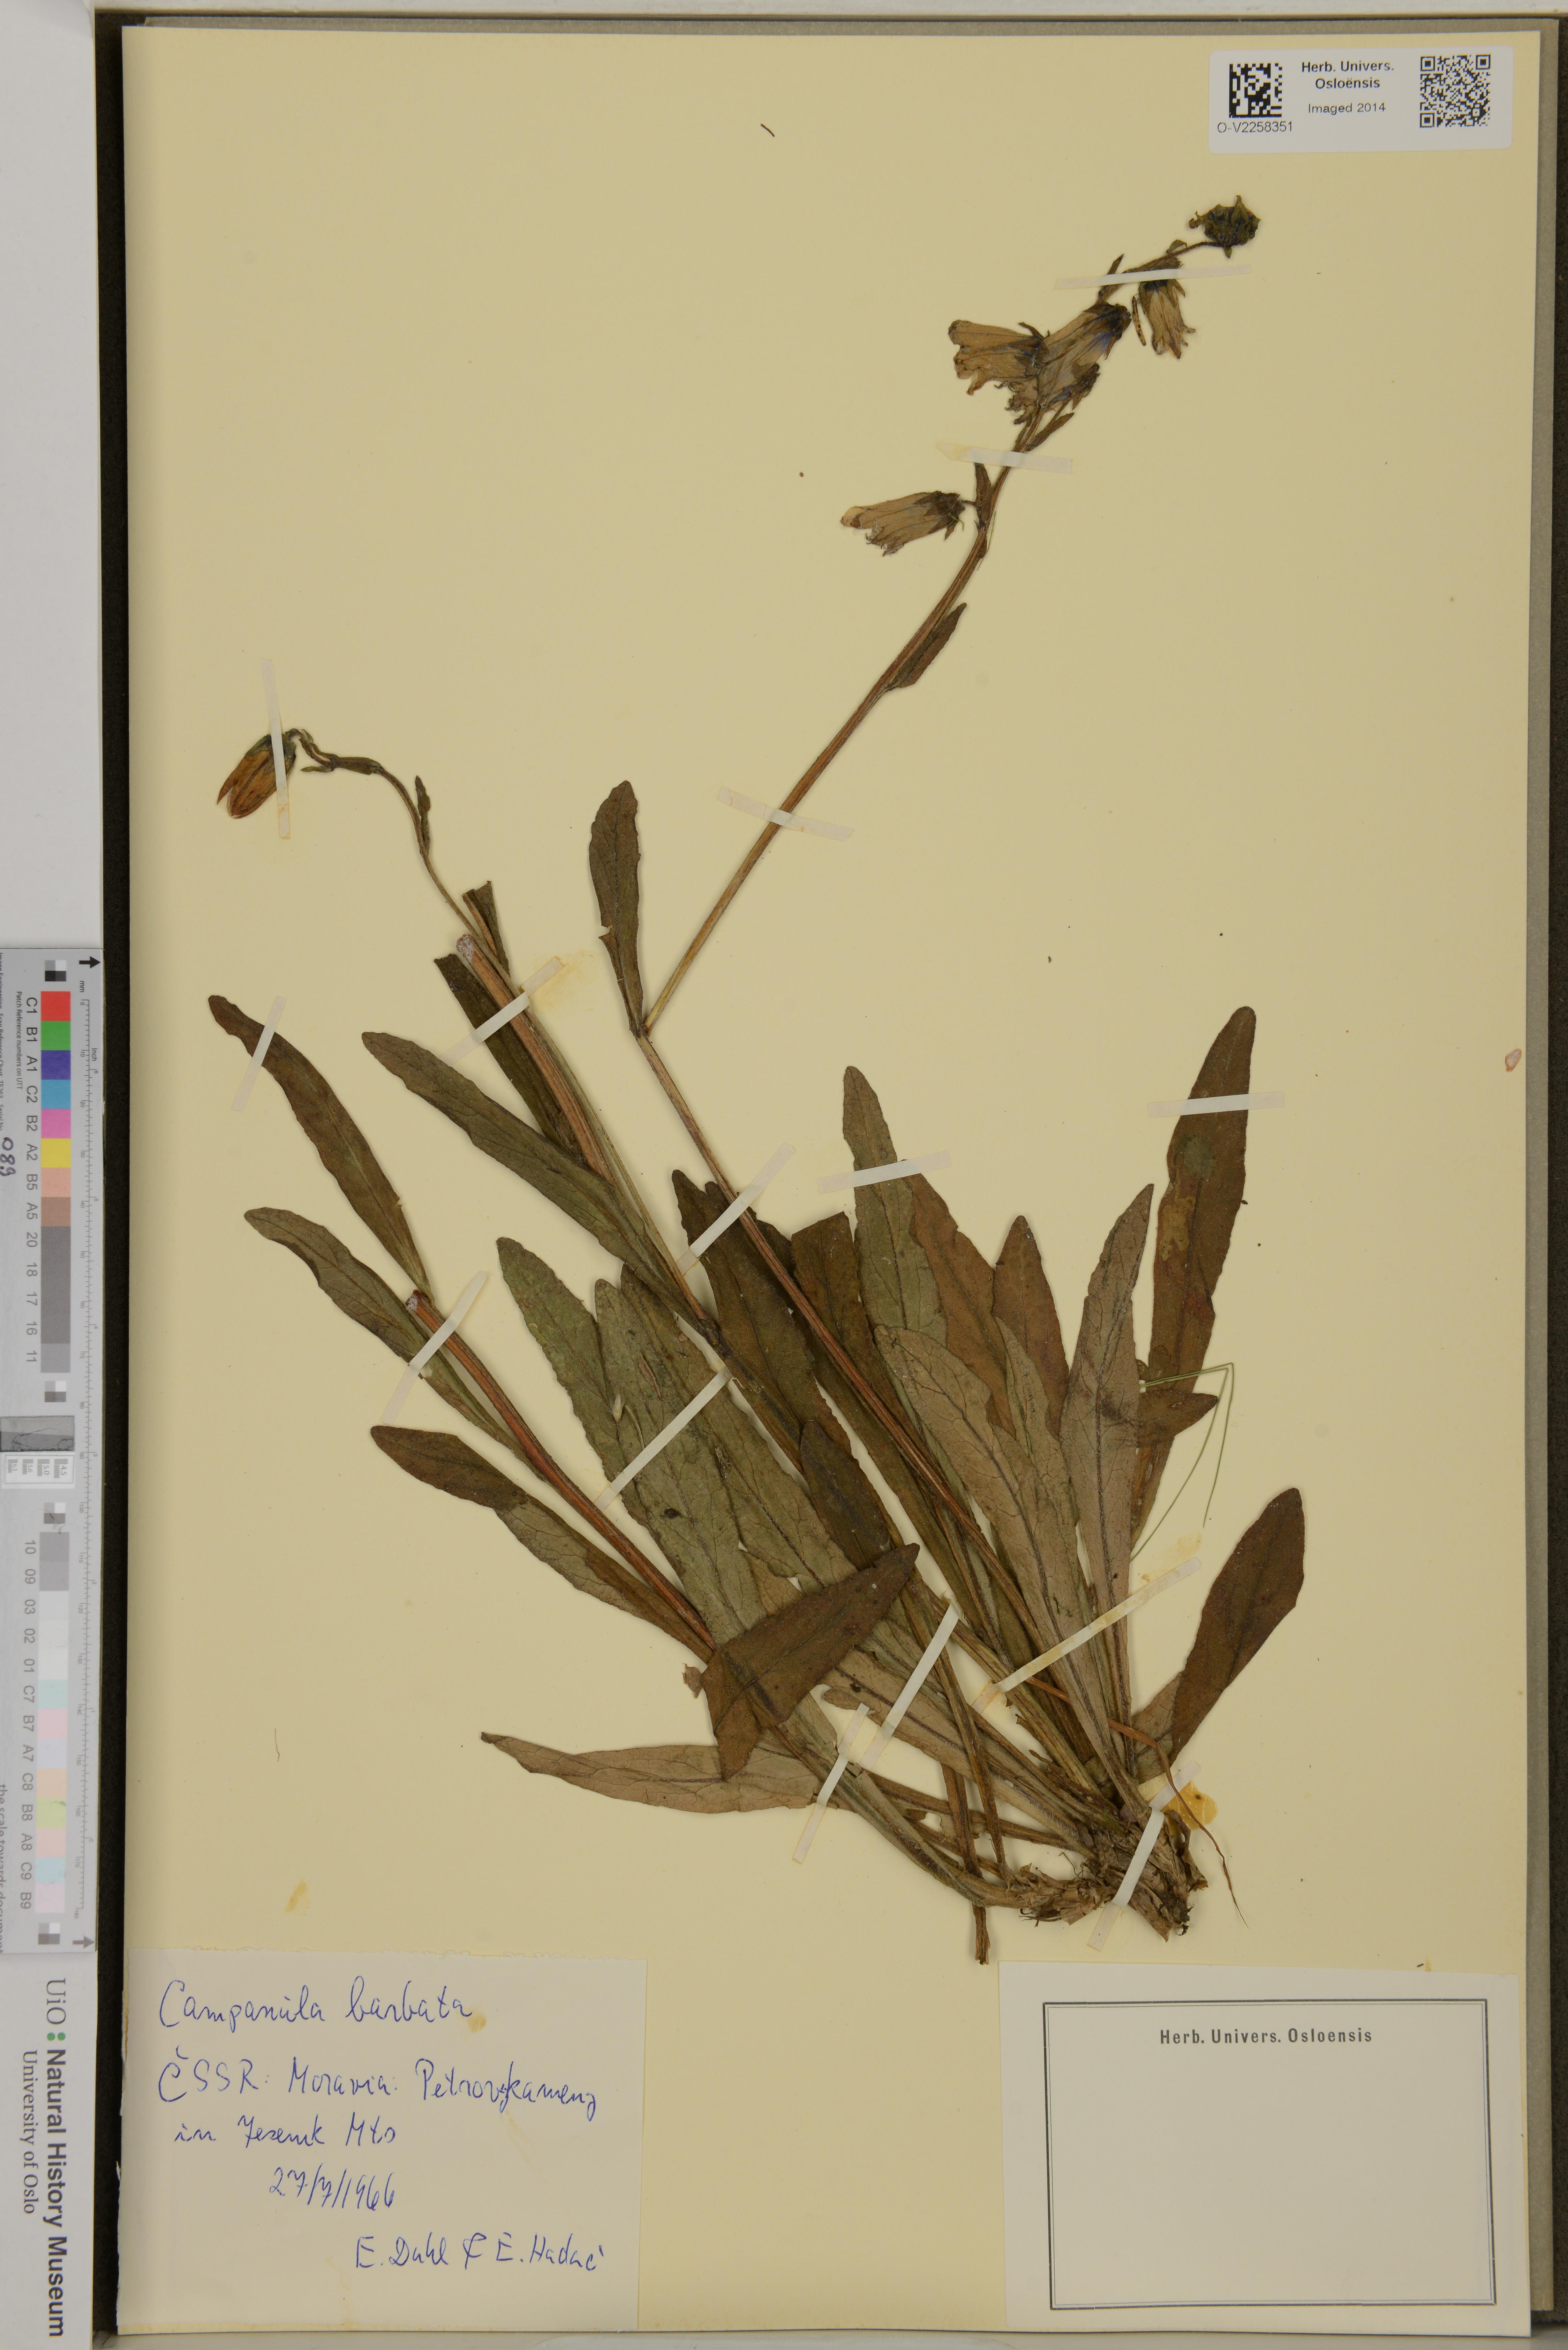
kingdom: Plantae
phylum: Tracheophyta
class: Magnoliopsida
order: Asterales
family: Campanulaceae
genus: Campanula
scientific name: Campanula barbata
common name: Bearded bellflower
